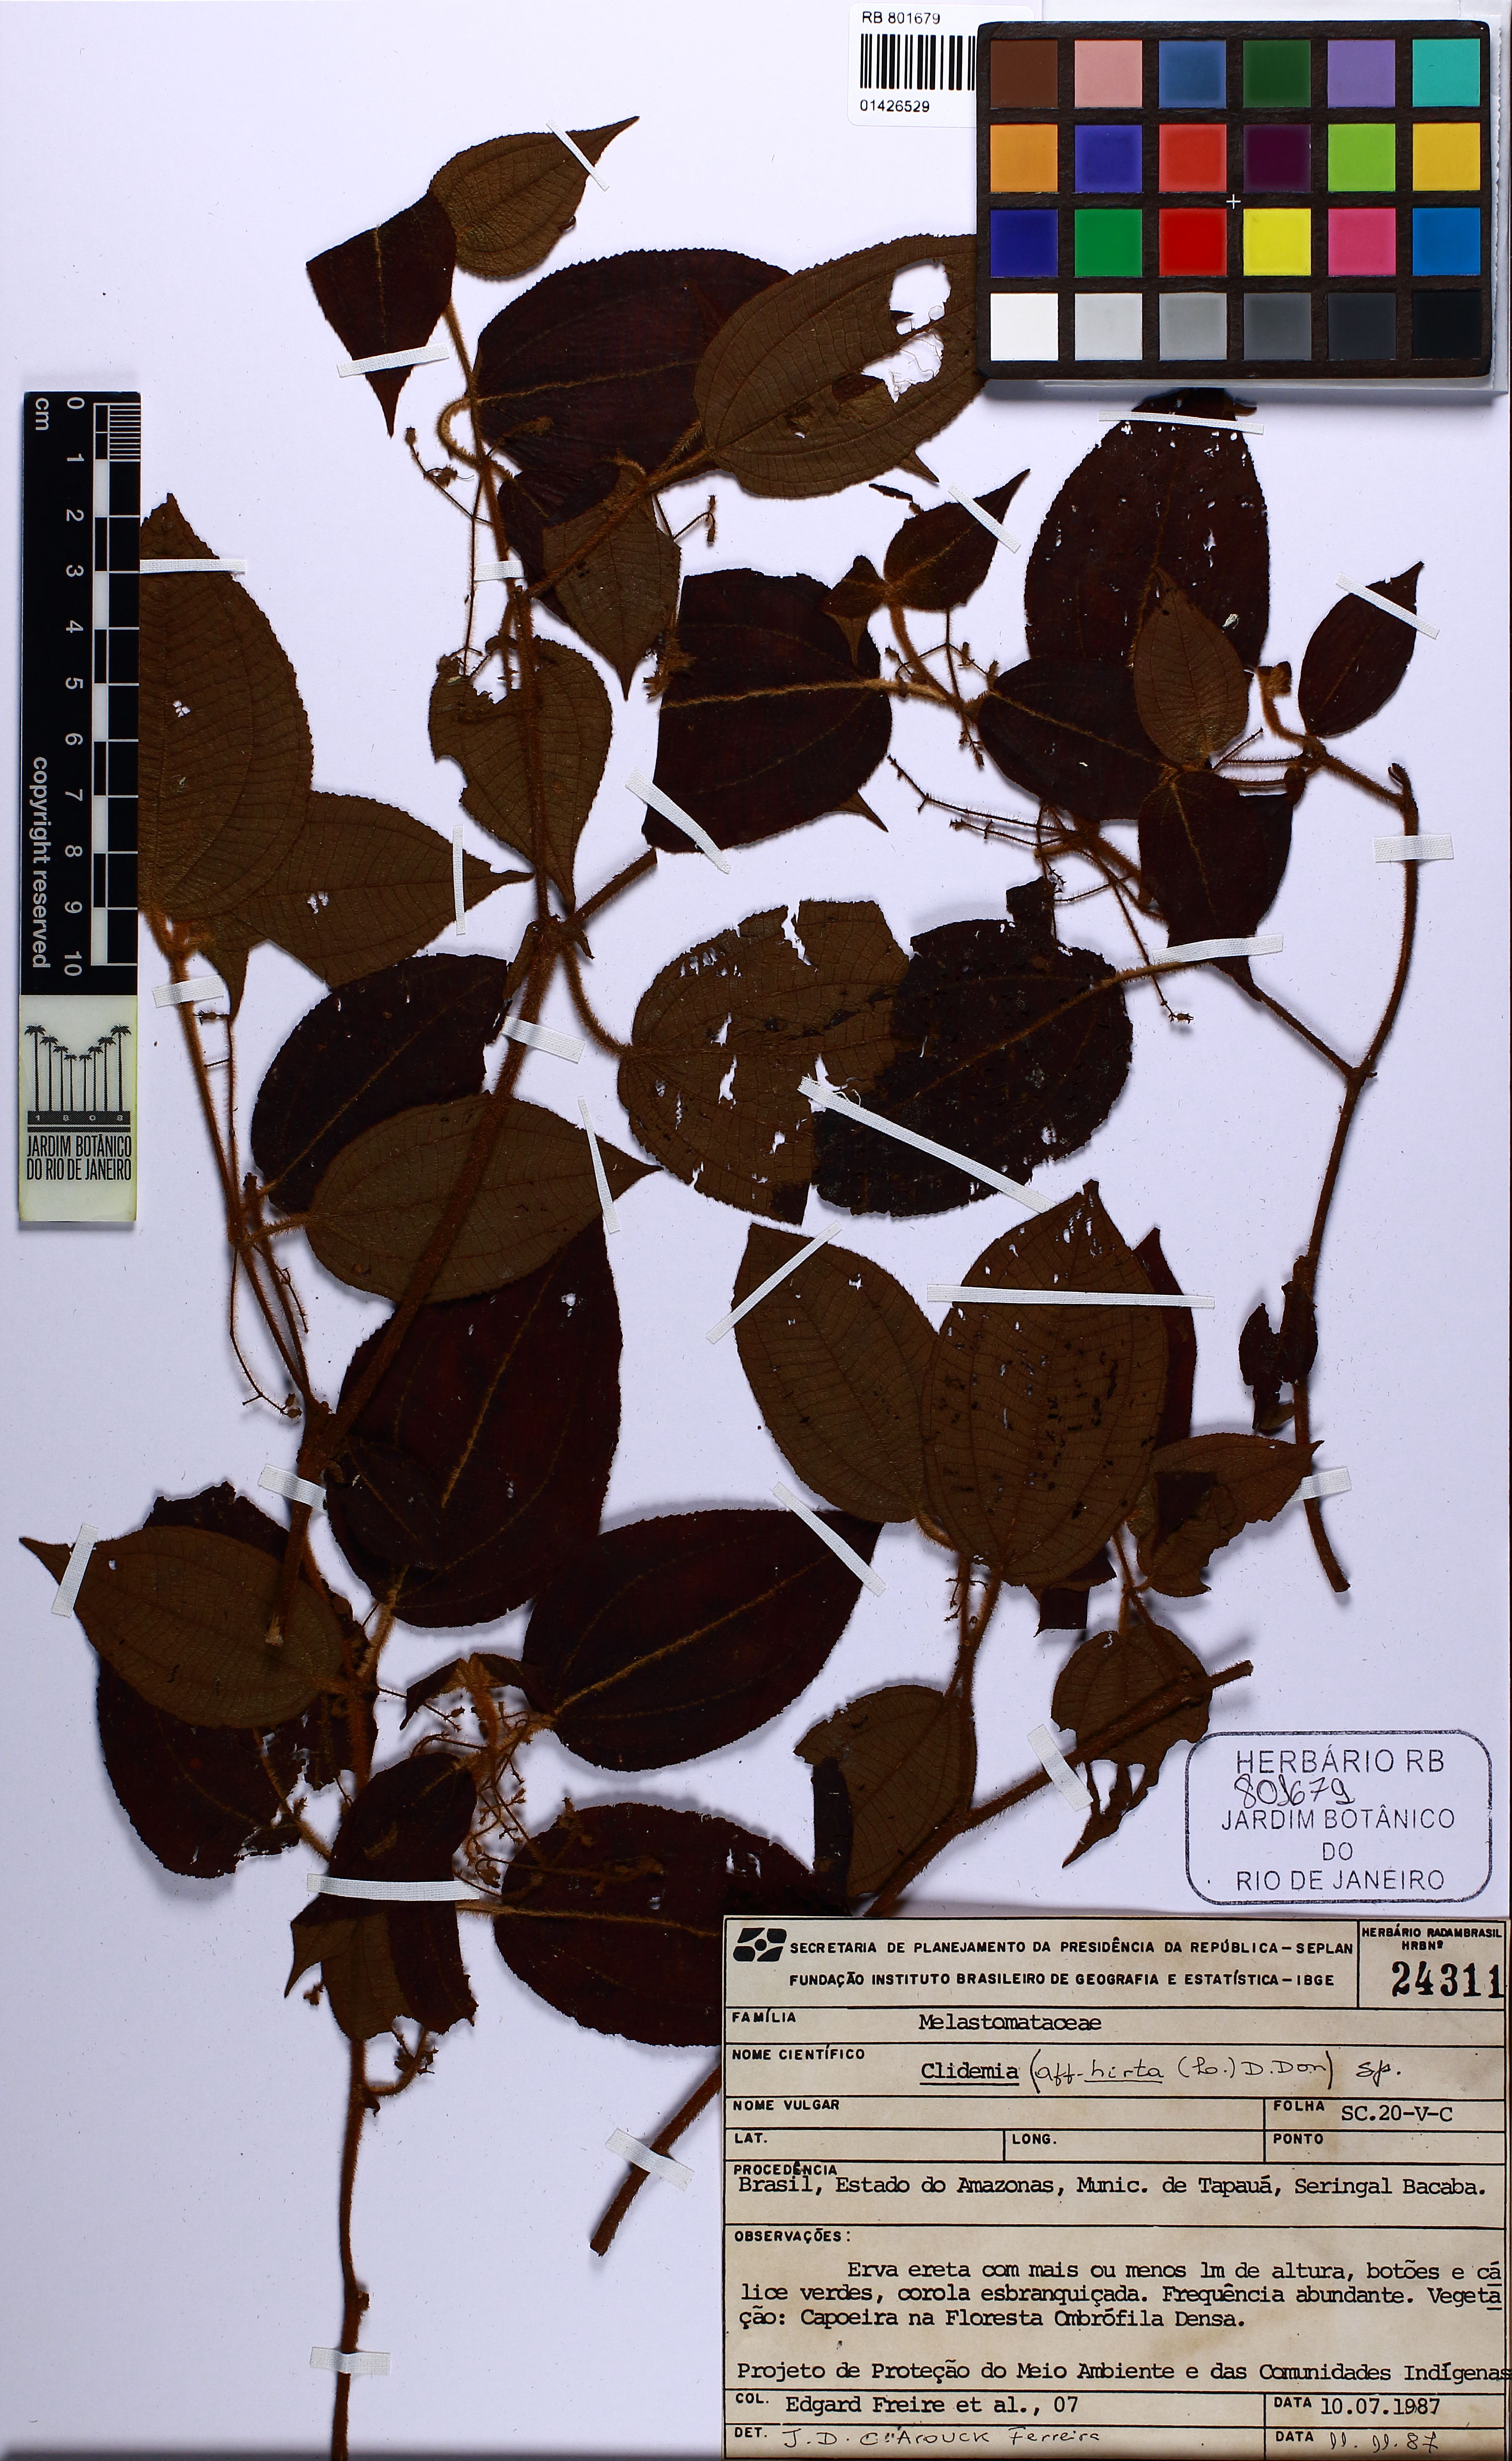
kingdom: Plantae
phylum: Tracheophyta
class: Magnoliopsida
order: Myrtales
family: Melastomataceae
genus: Miconia
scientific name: Miconia crenata
